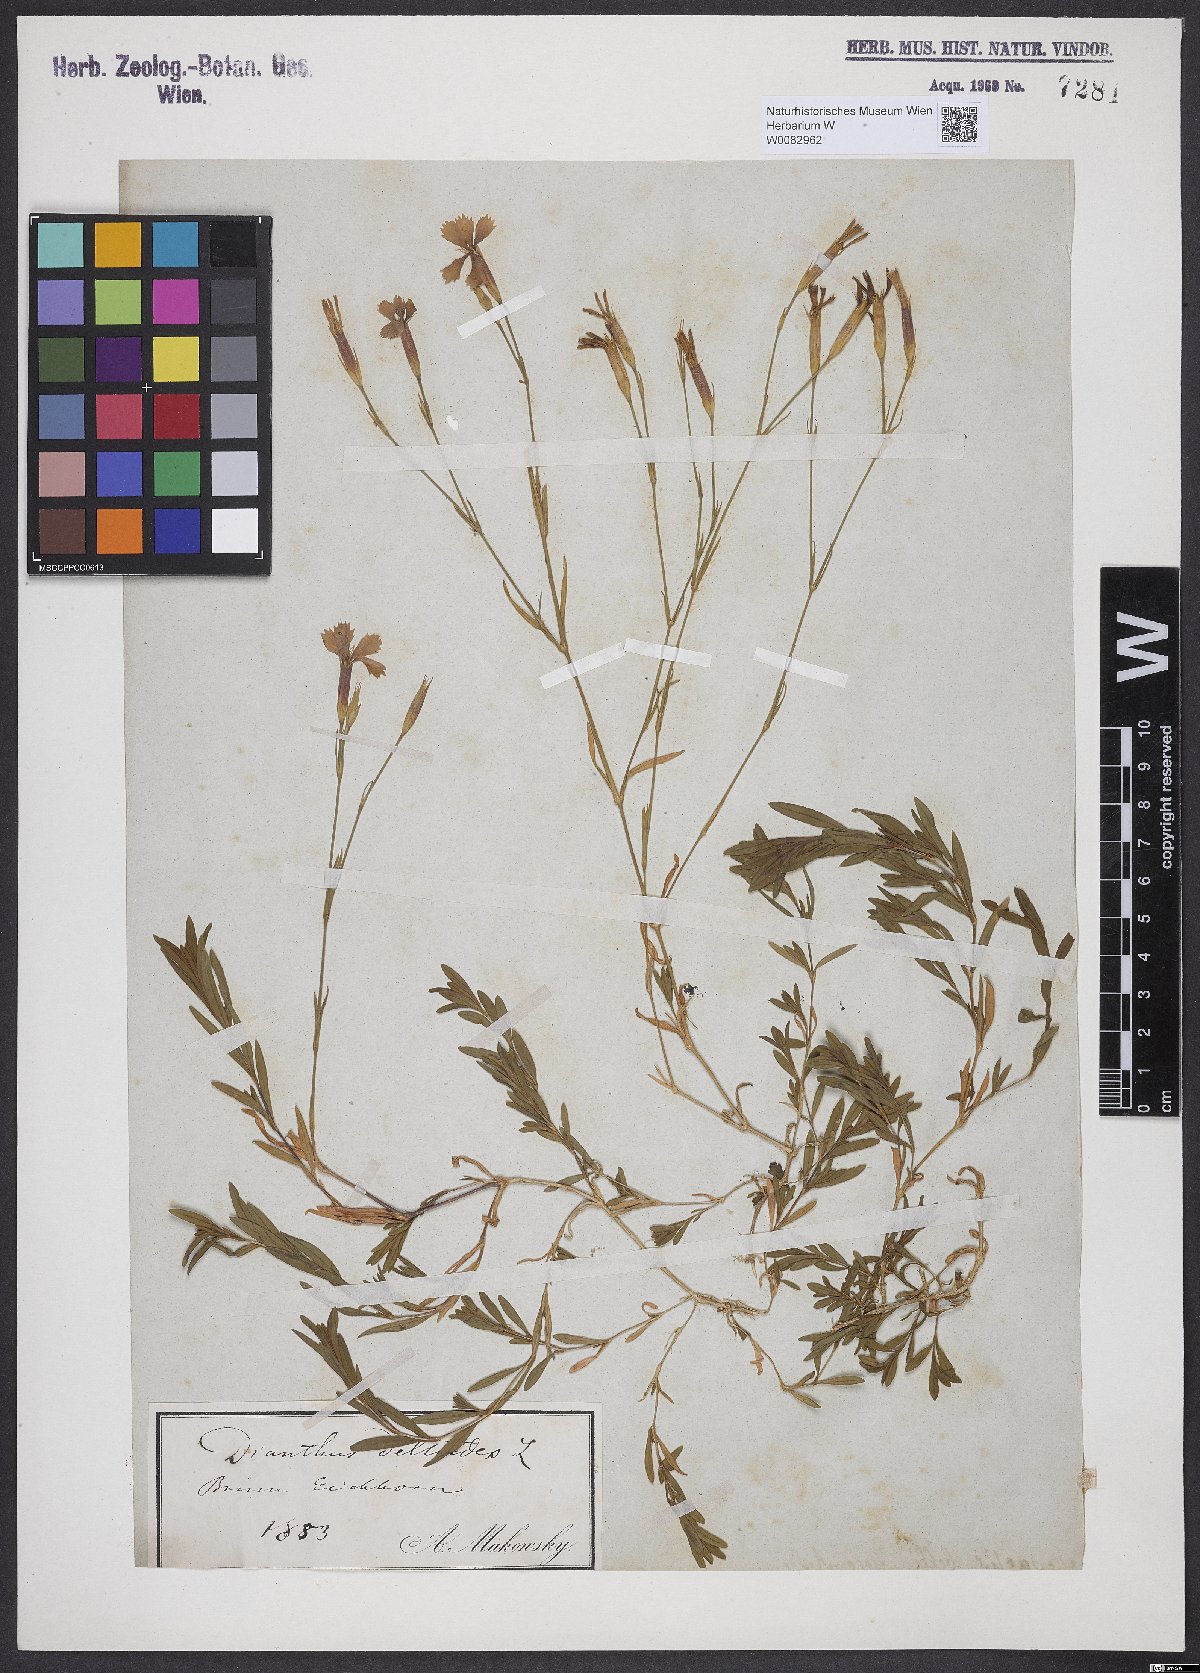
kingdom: Plantae
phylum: Tracheophyta
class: Magnoliopsida
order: Caryophyllales
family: Caryophyllaceae
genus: Dianthus
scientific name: Dianthus deltoides
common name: Maiden pink
